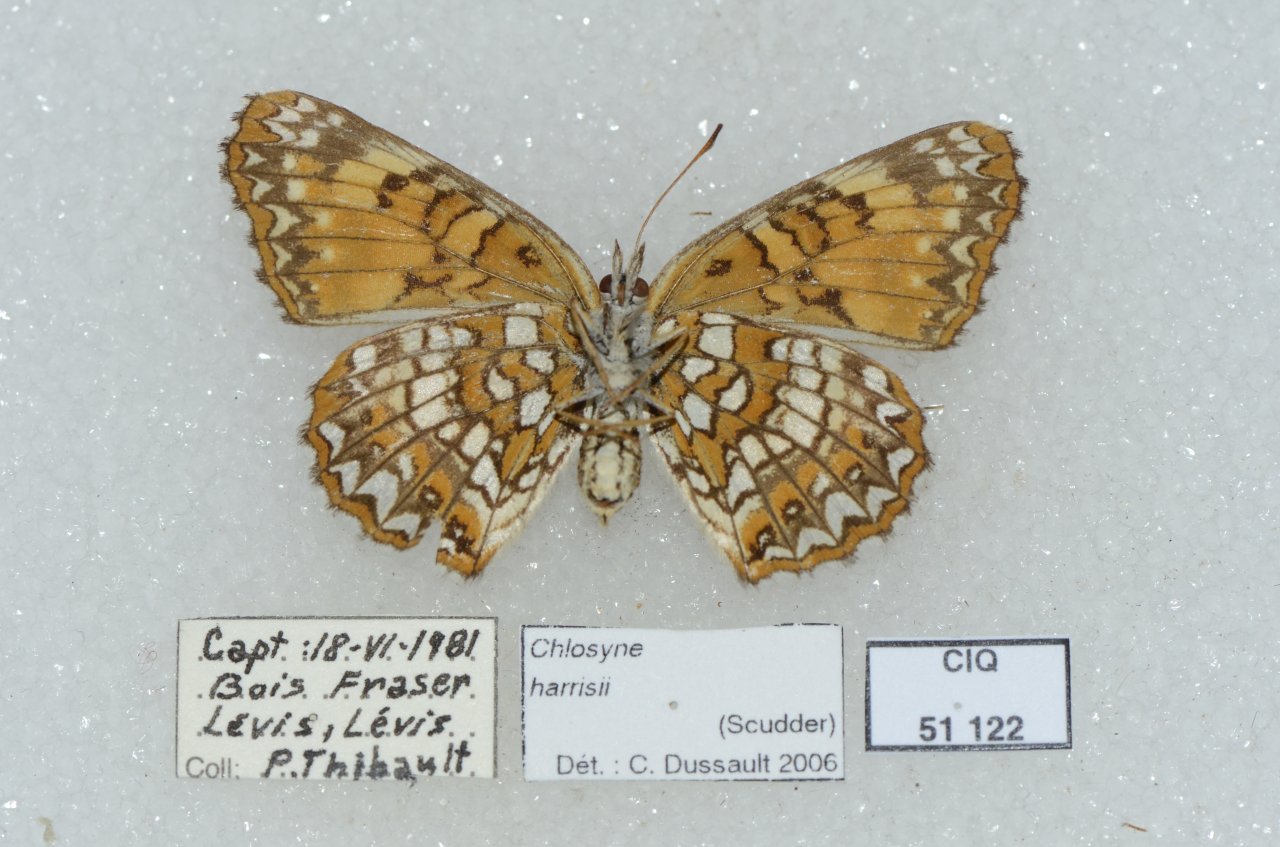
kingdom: Animalia
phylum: Arthropoda
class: Insecta
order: Lepidoptera
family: Nymphalidae
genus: Chlosyne
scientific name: Chlosyne harrisii
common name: Harris's Checkerspot
